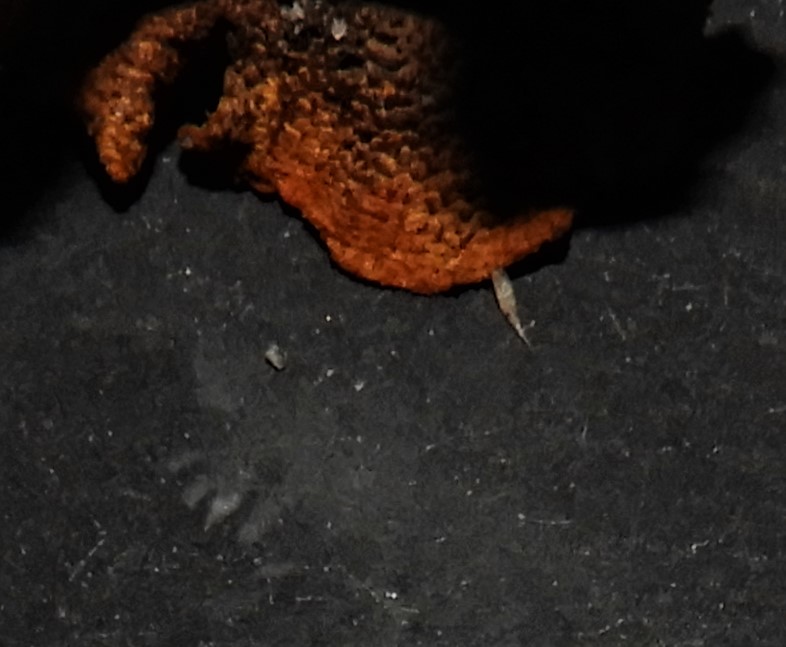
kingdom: Fungi
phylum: Basidiomycota
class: Agaricomycetes
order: Agaricales
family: Hygrophoraceae
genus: Hygrocybe
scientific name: Hygrocybe coccineocrenata
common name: tørvemos-vokshat
